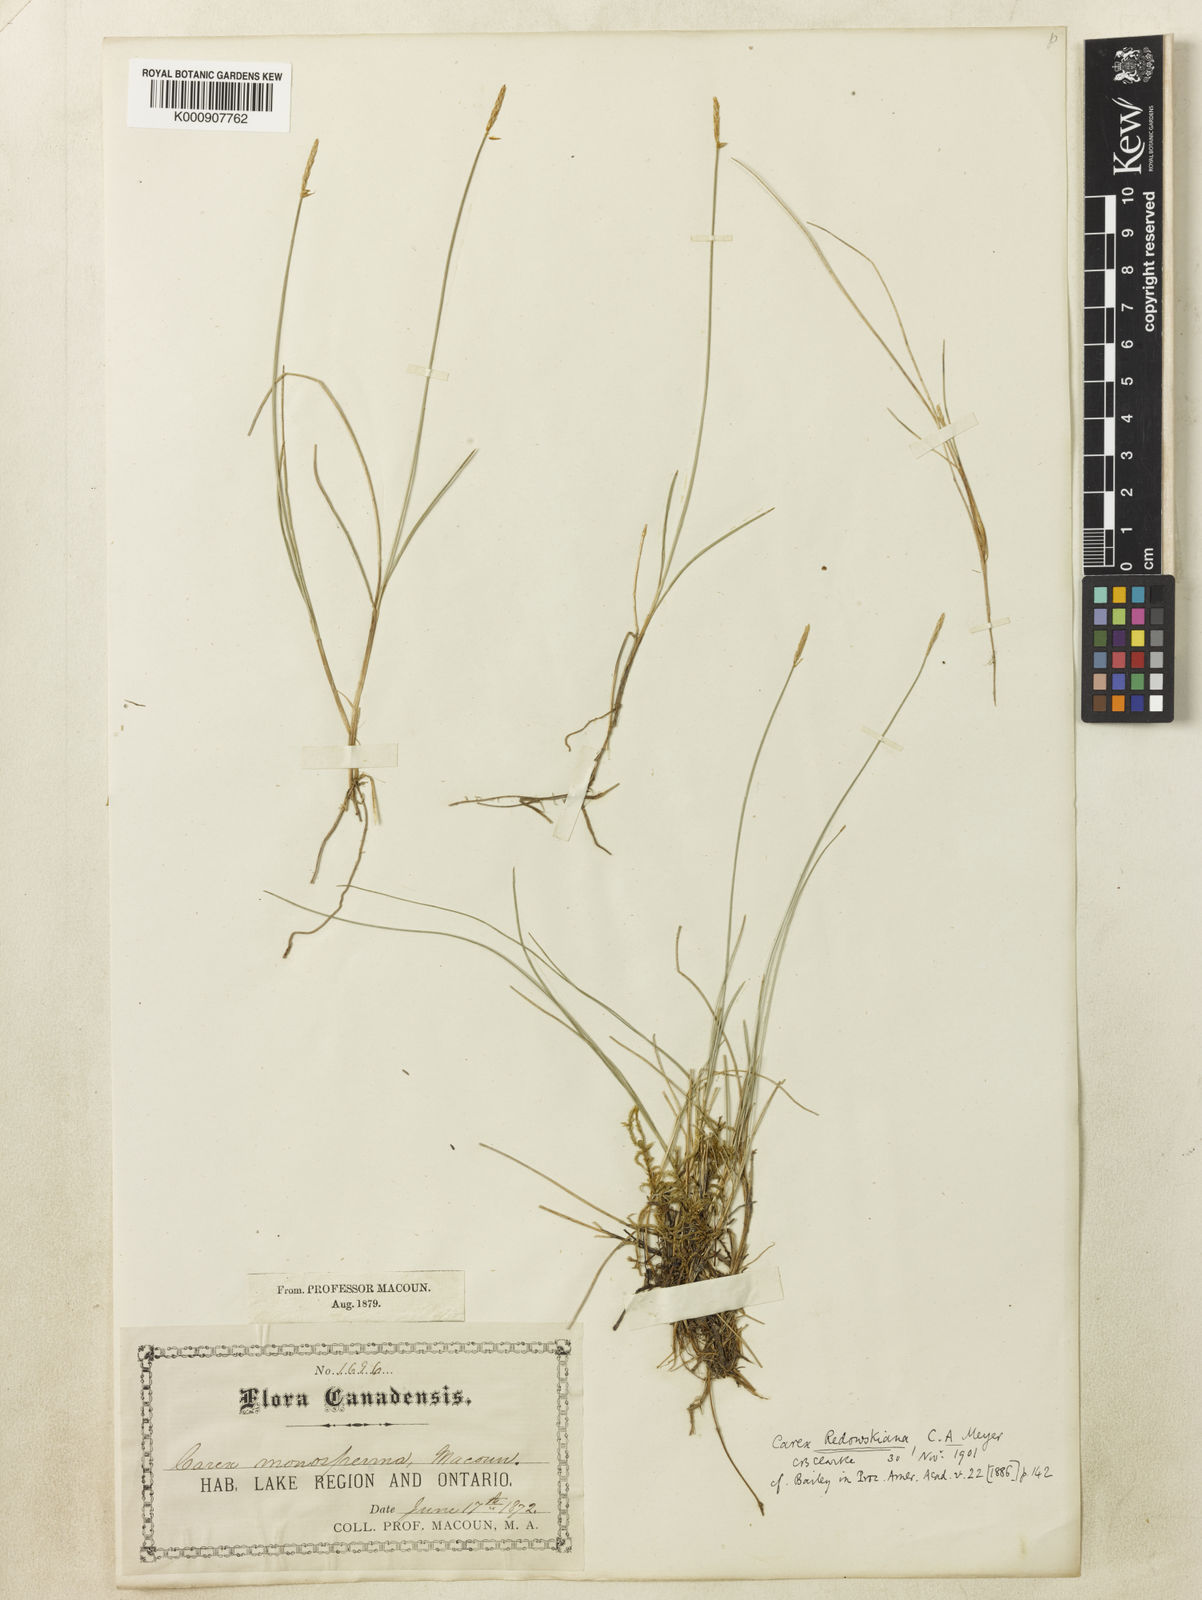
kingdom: Plantae
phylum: Tracheophyta
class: Liliopsida
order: Poales
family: Cyperaceae
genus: Carex
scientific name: Carex
